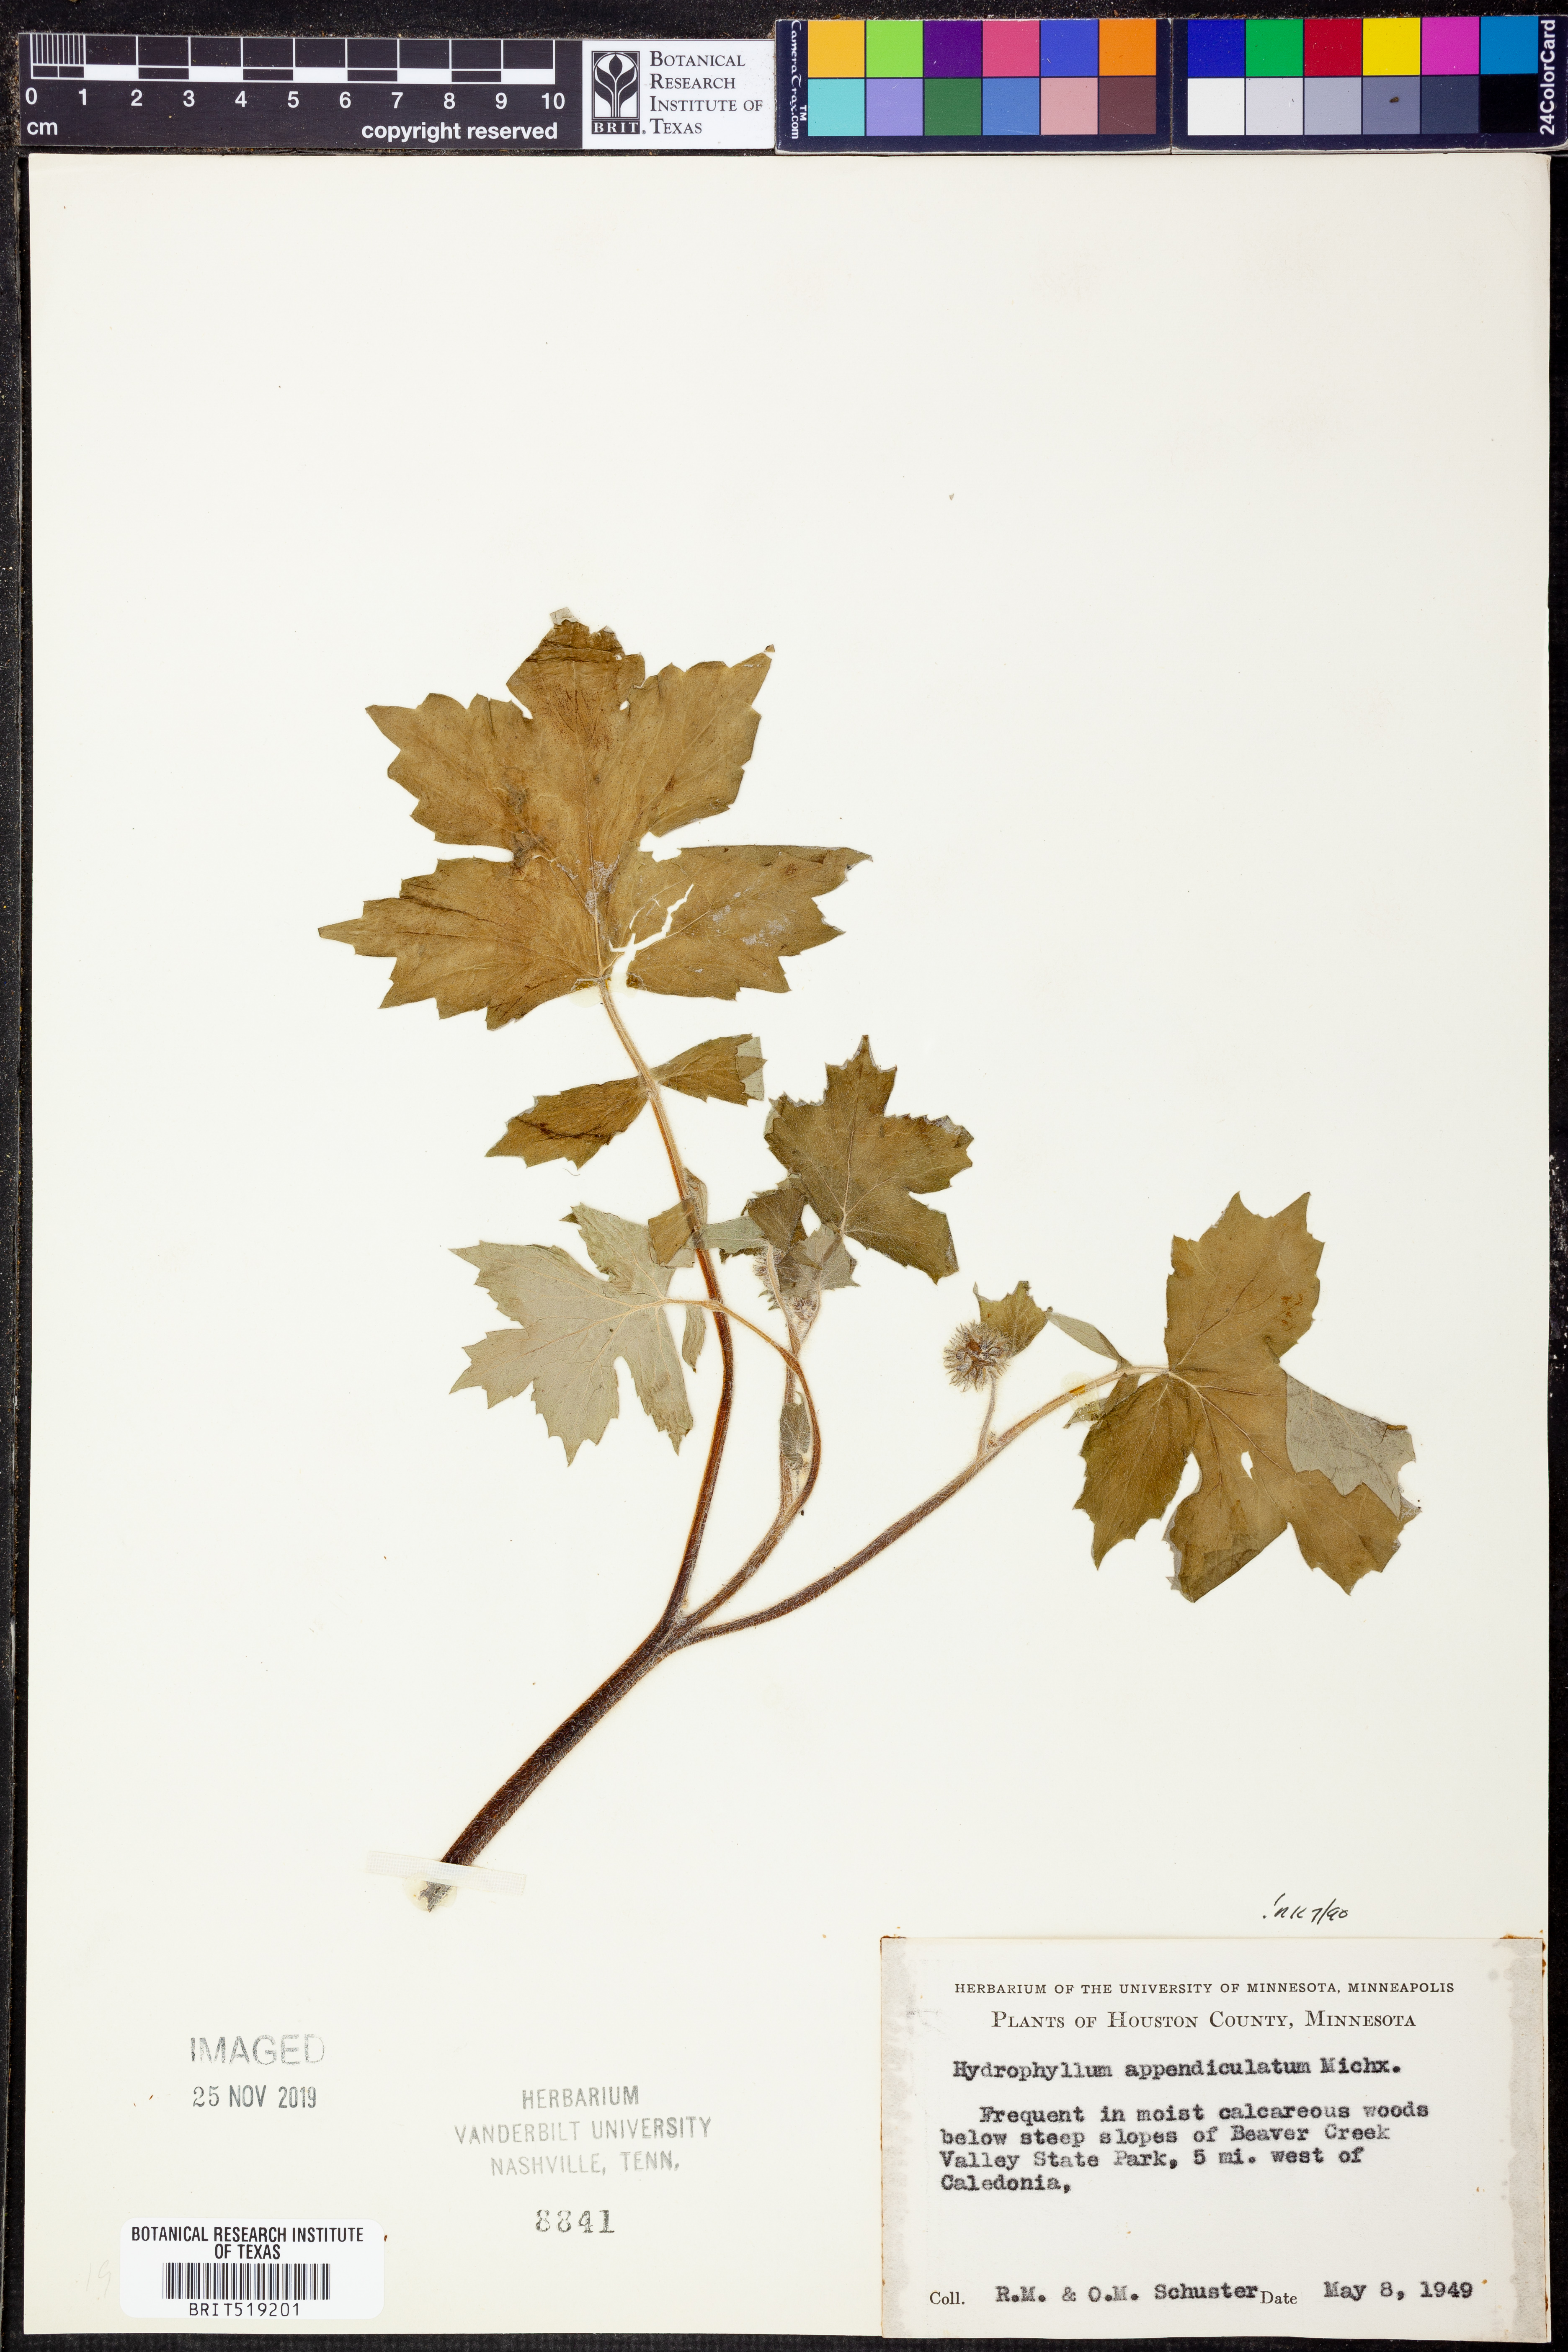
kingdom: Plantae
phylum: Tracheophyta
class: Magnoliopsida
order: Boraginales
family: Hydrophyllaceae
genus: Hydrophyllum
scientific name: Hydrophyllum appendiculatum
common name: Appendaged waterleaf
